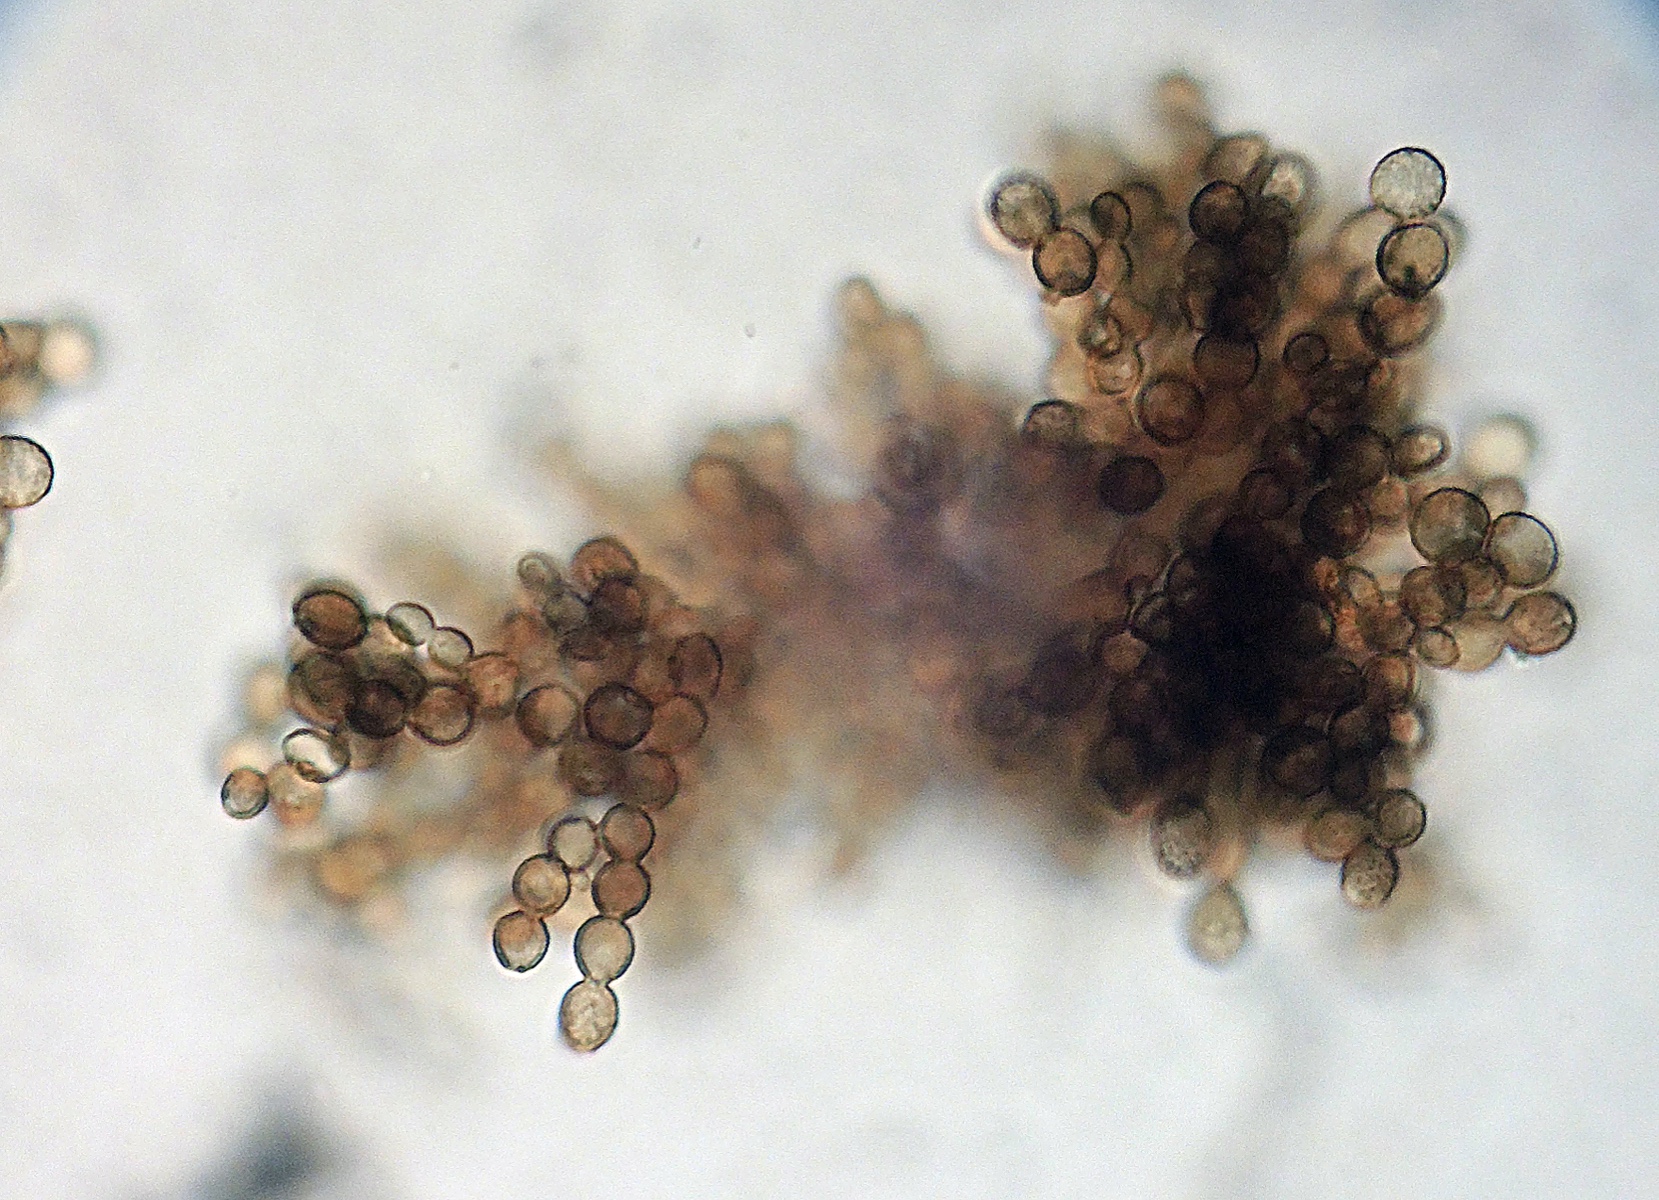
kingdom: Fungi
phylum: Ascomycota
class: Dothideomycetes
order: Pleosporales
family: Periconiaceae
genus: Periconia
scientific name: Periconia atra
